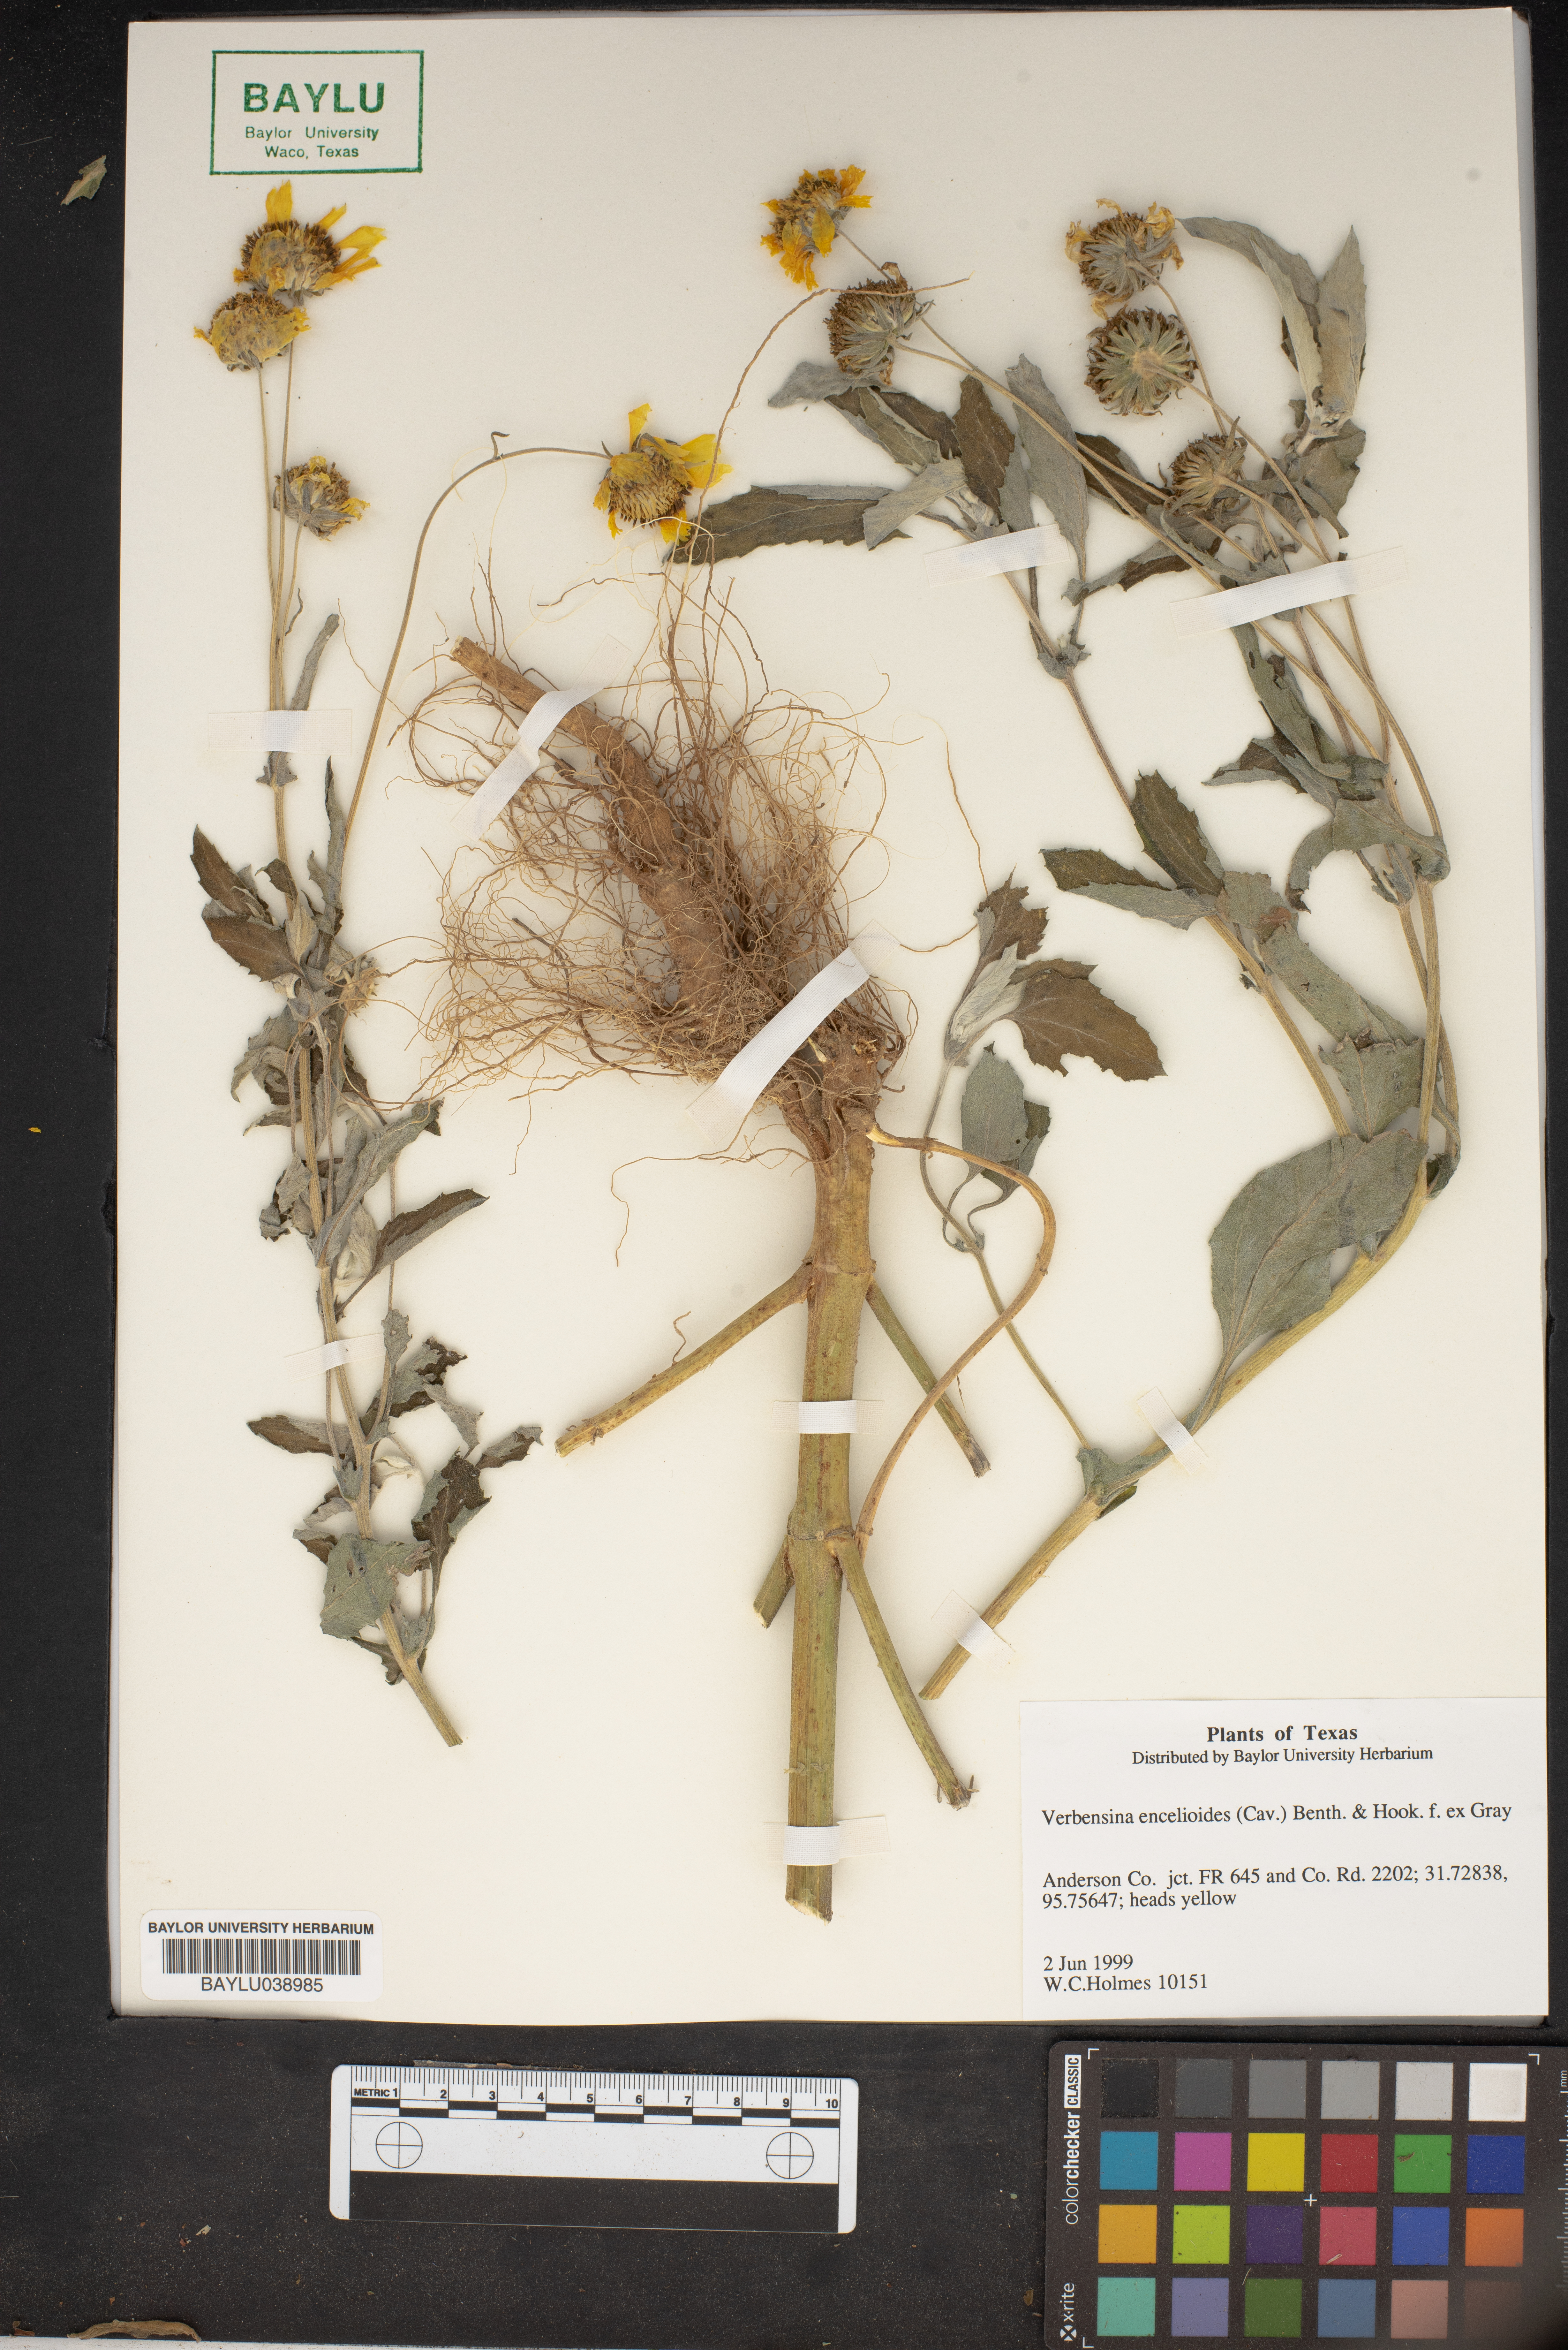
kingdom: Plantae
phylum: Tracheophyta
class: Magnoliopsida
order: Asterales
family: Asteraceae
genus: Verbesina
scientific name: Verbesina encelioides
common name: Golden crownbeard
